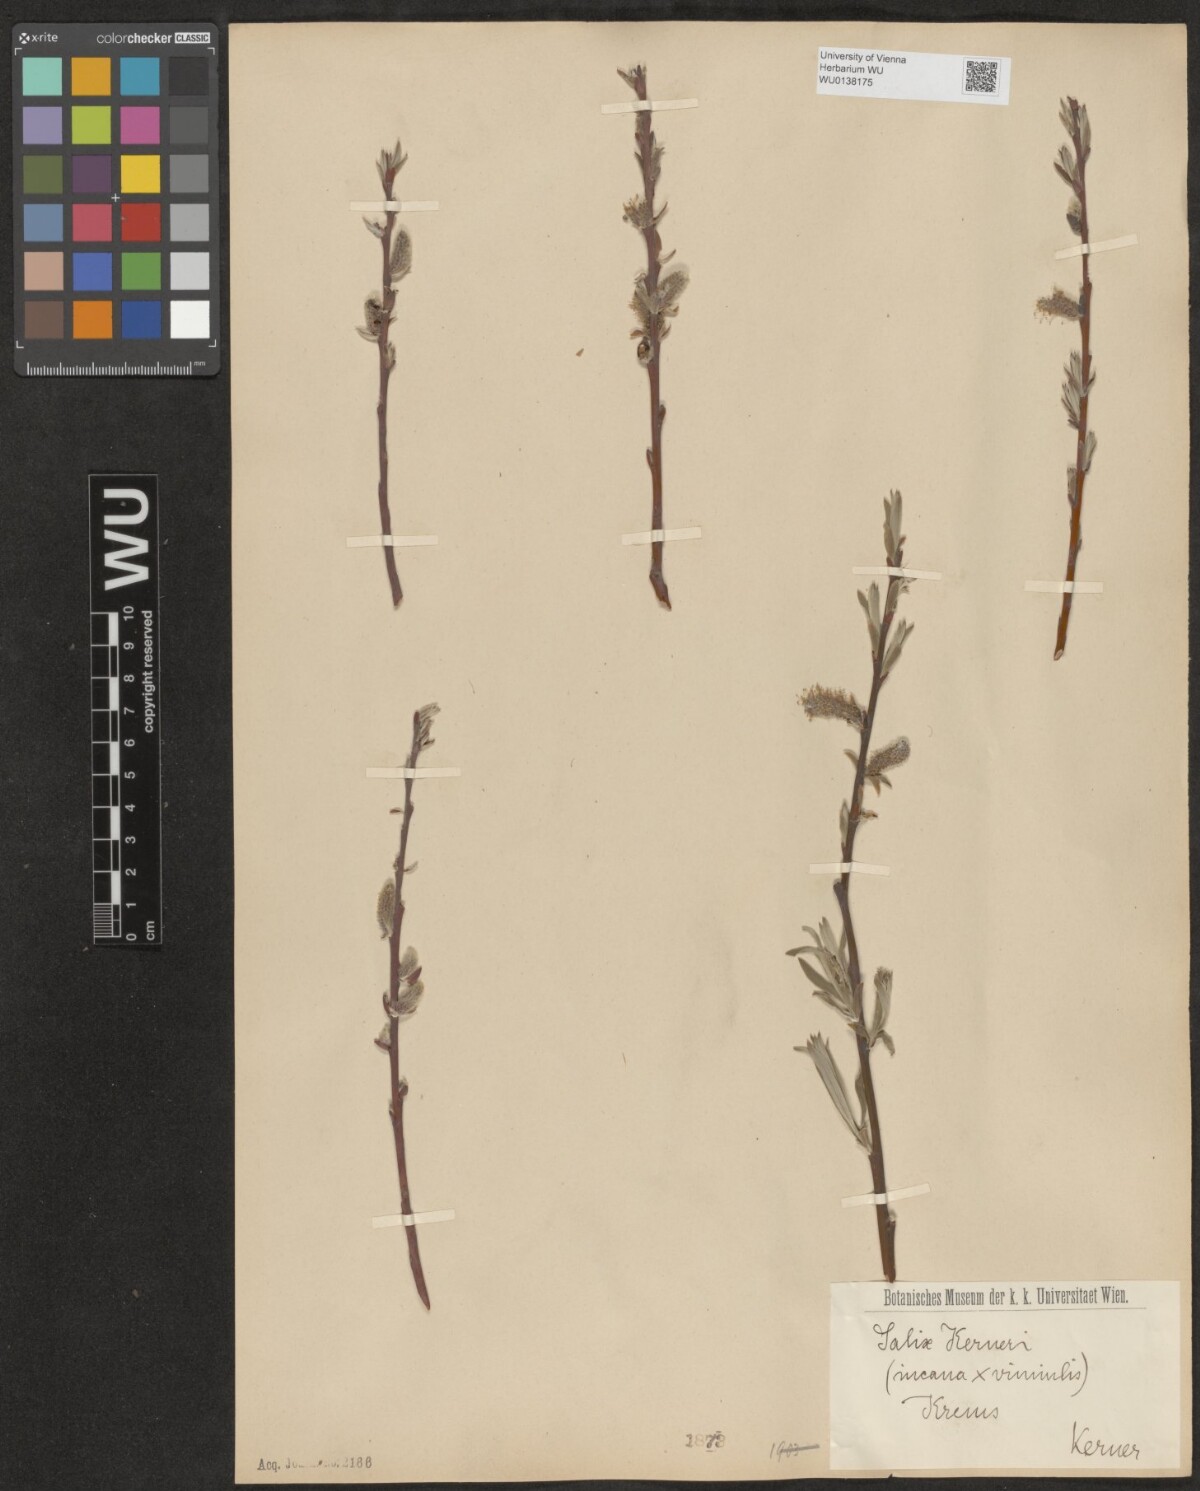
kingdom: Plantae
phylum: Tracheophyta
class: Magnoliopsida
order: Malpighiales
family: Salicaceae
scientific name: Salicaceae
